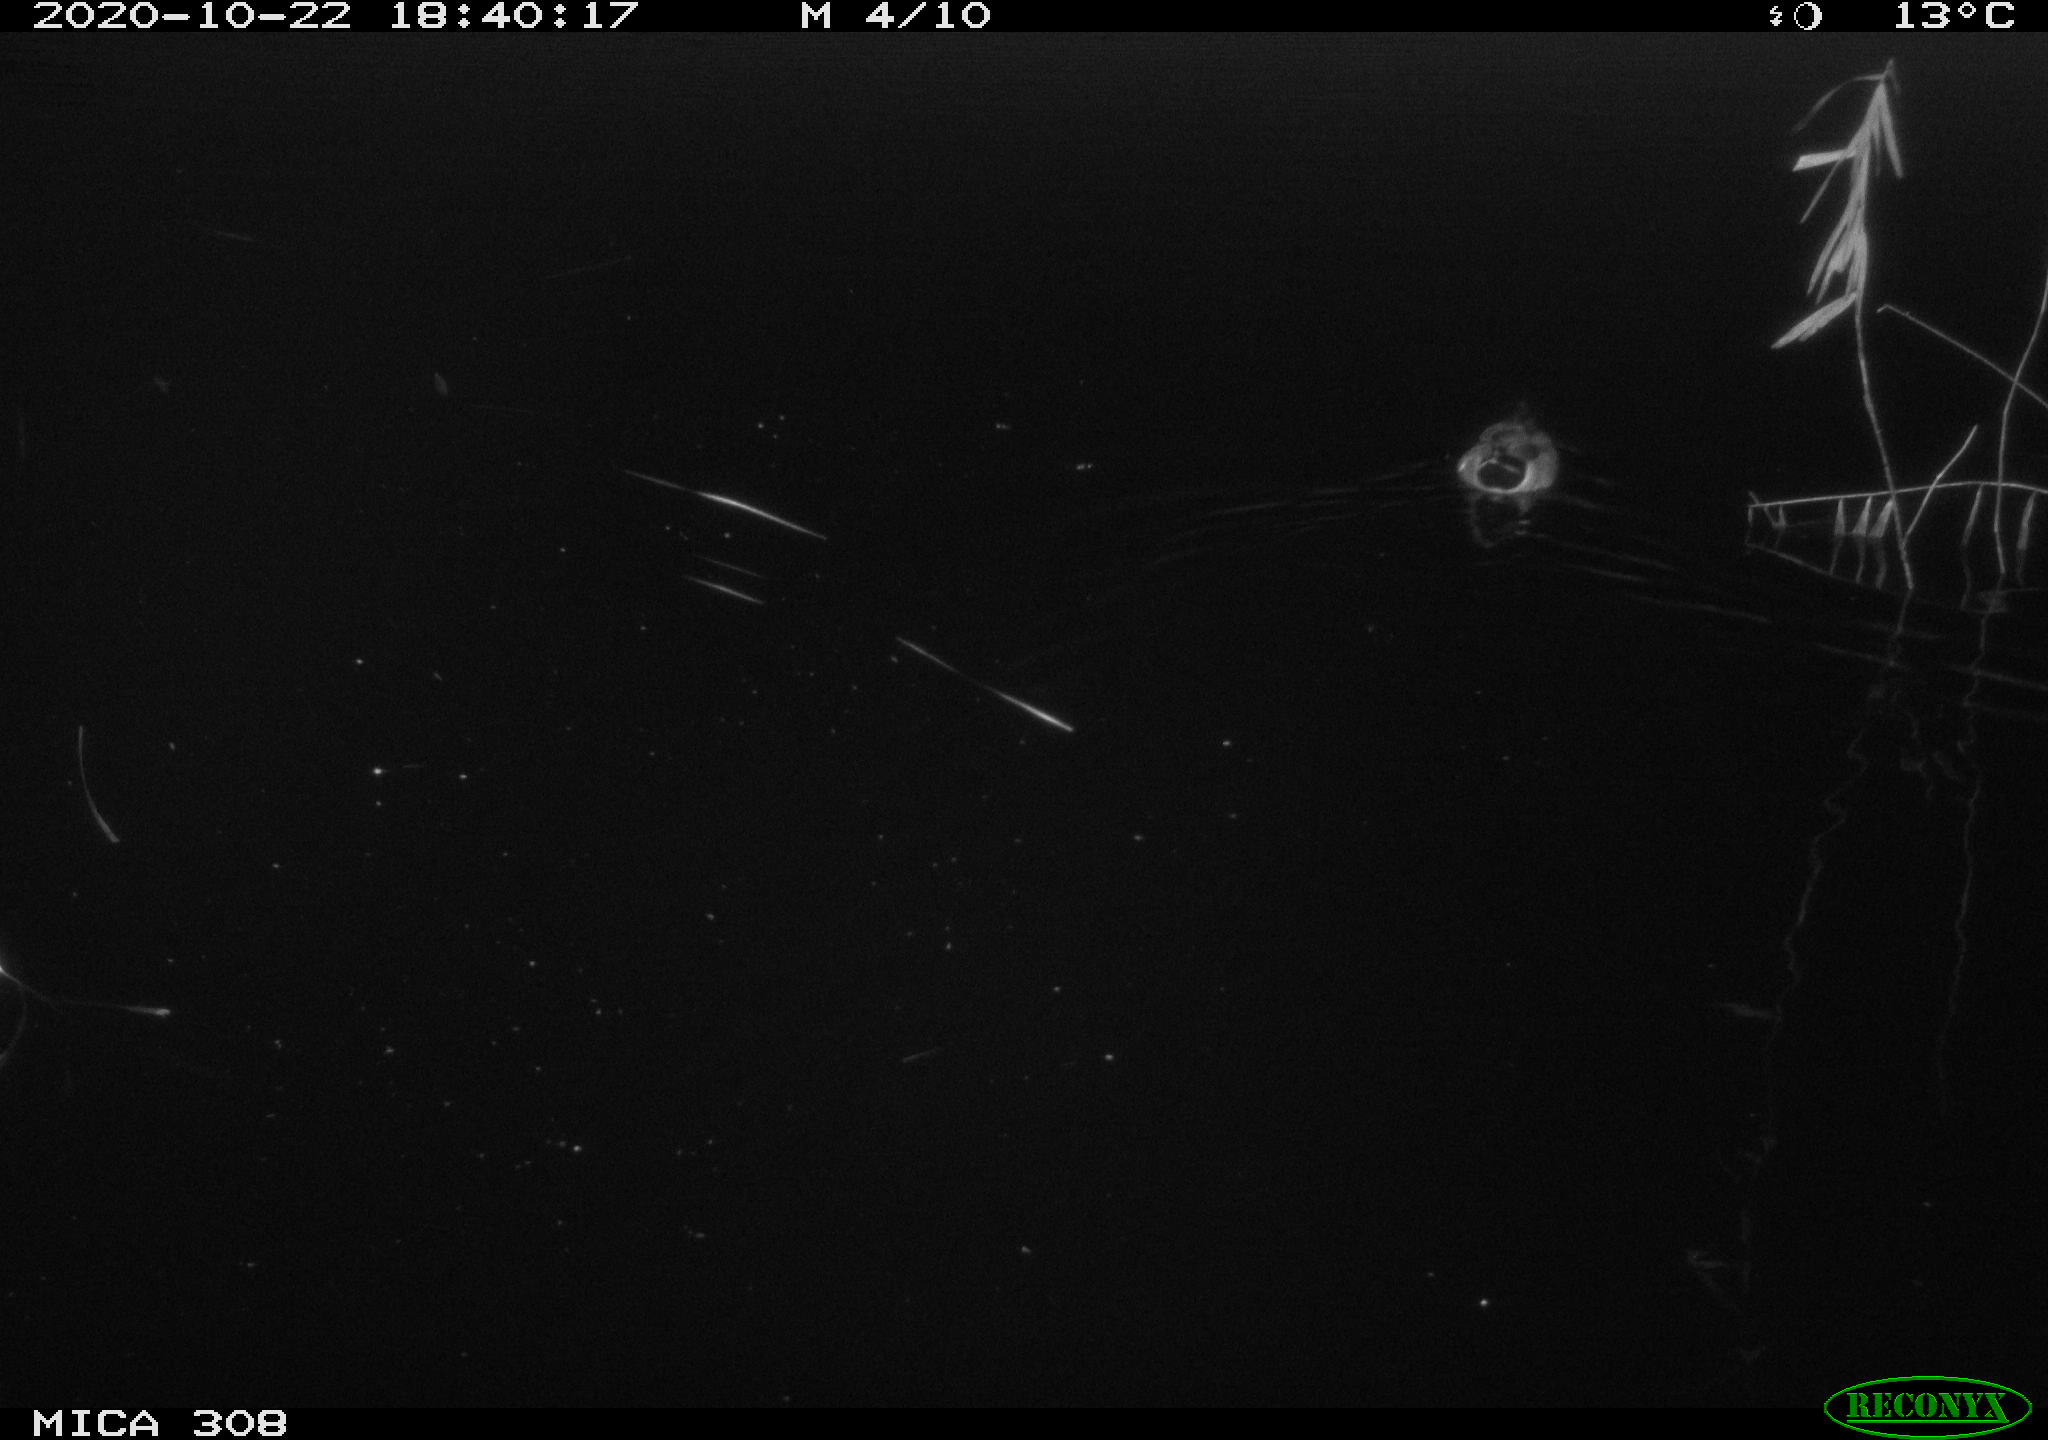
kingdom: Animalia
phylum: Chordata
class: Aves
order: Anseriformes
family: Anatidae
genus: Anas
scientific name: Anas
